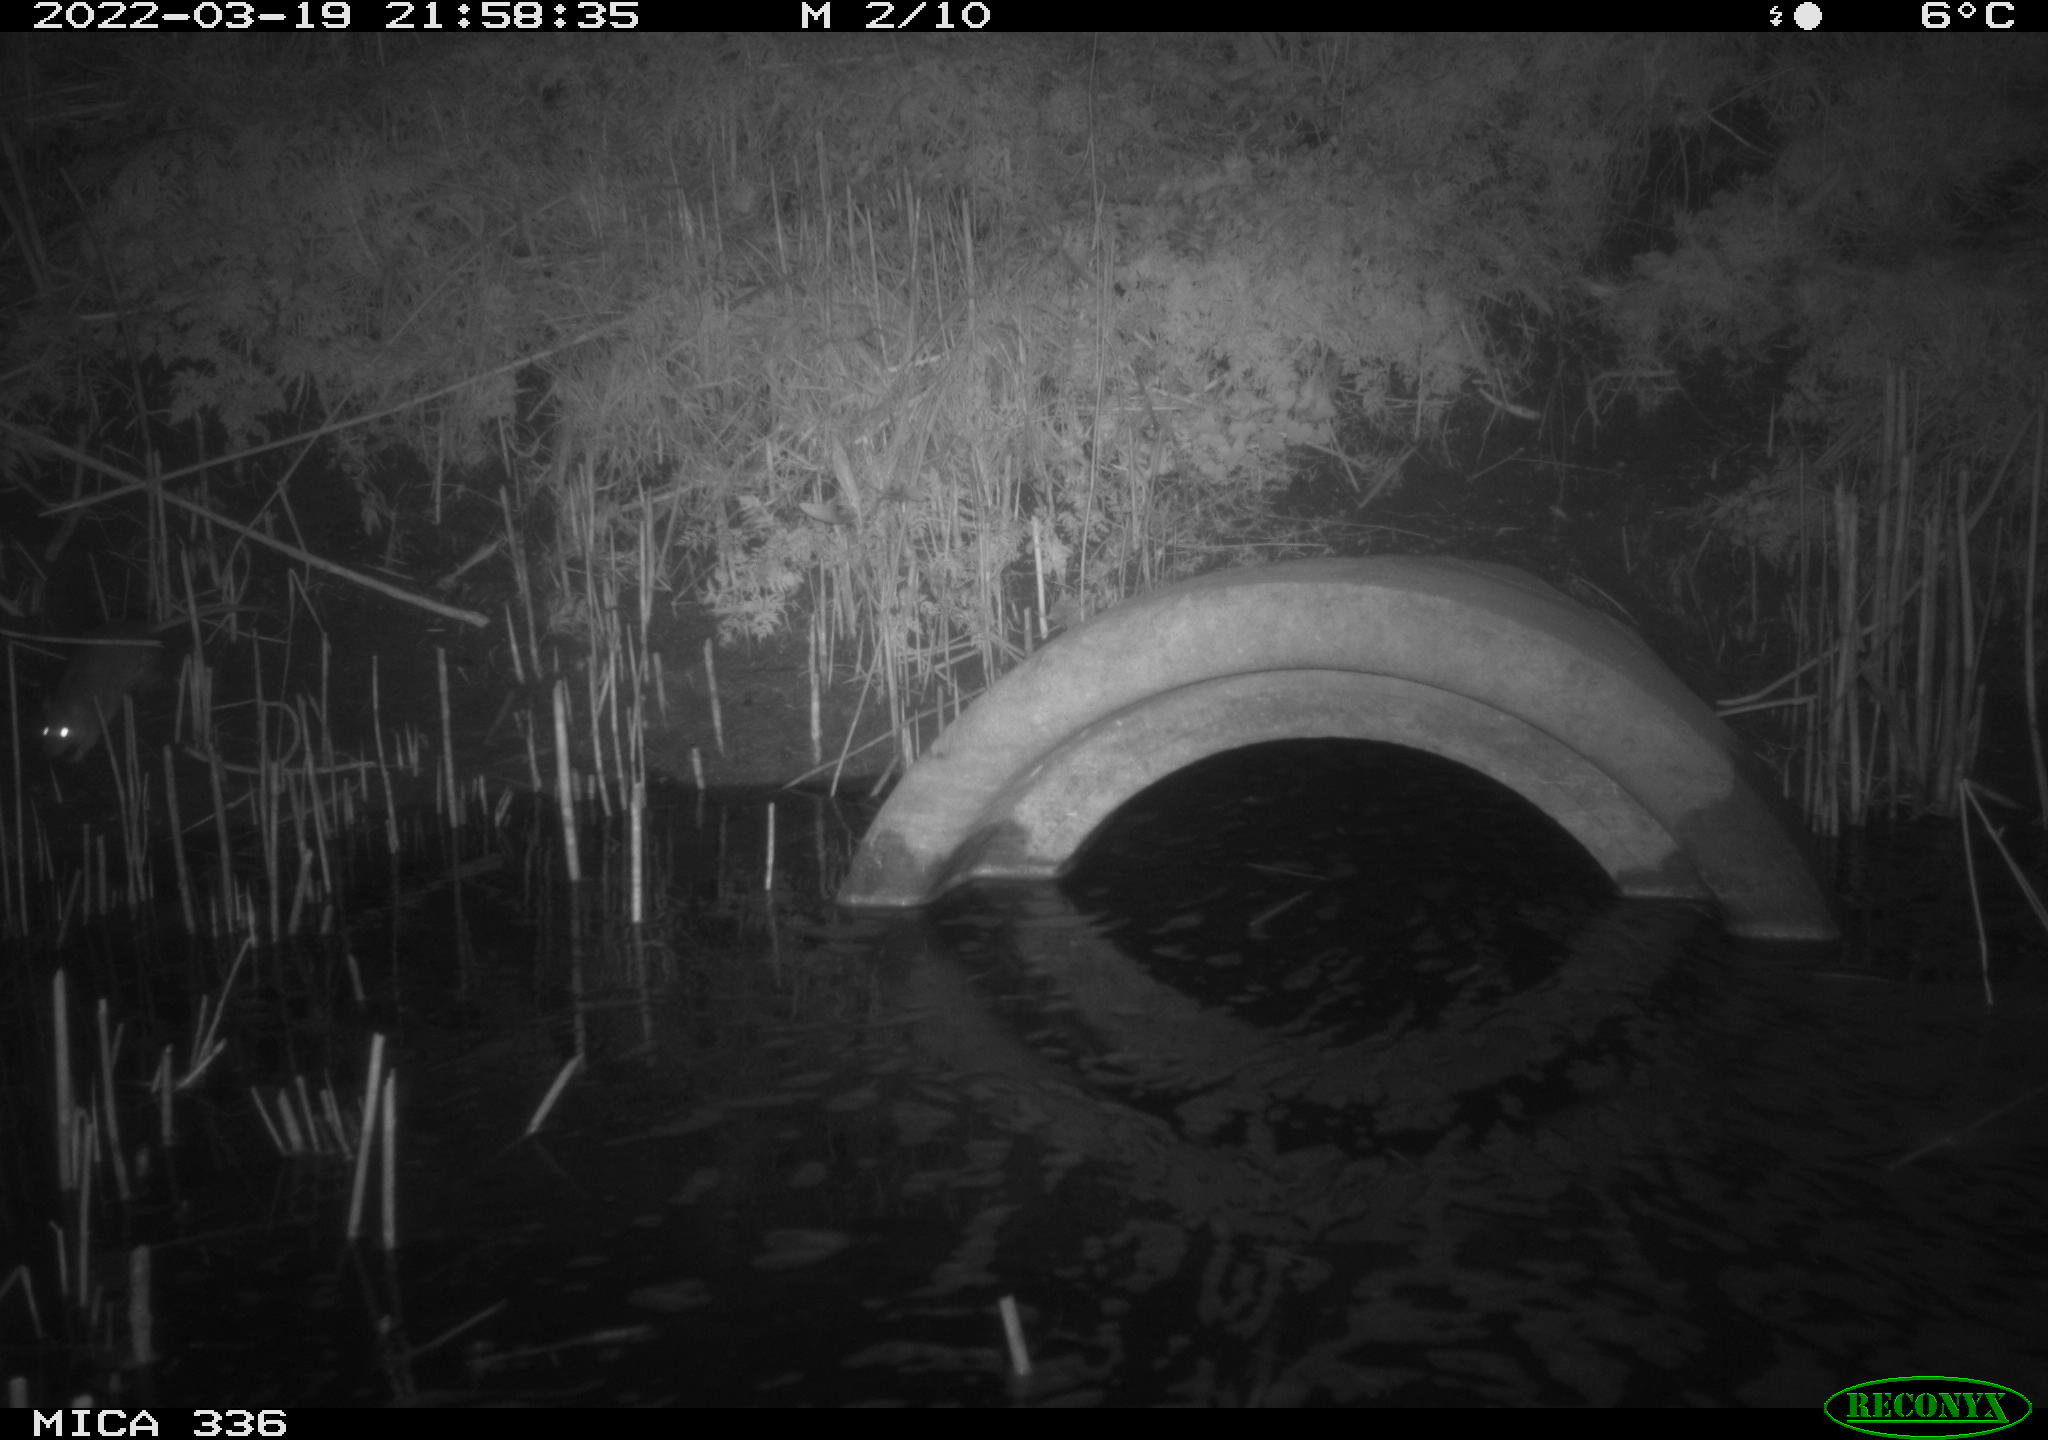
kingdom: Animalia
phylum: Chordata
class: Mammalia
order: Rodentia
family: Muridae
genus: Rattus
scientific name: Rattus norvegicus
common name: Brown rat
